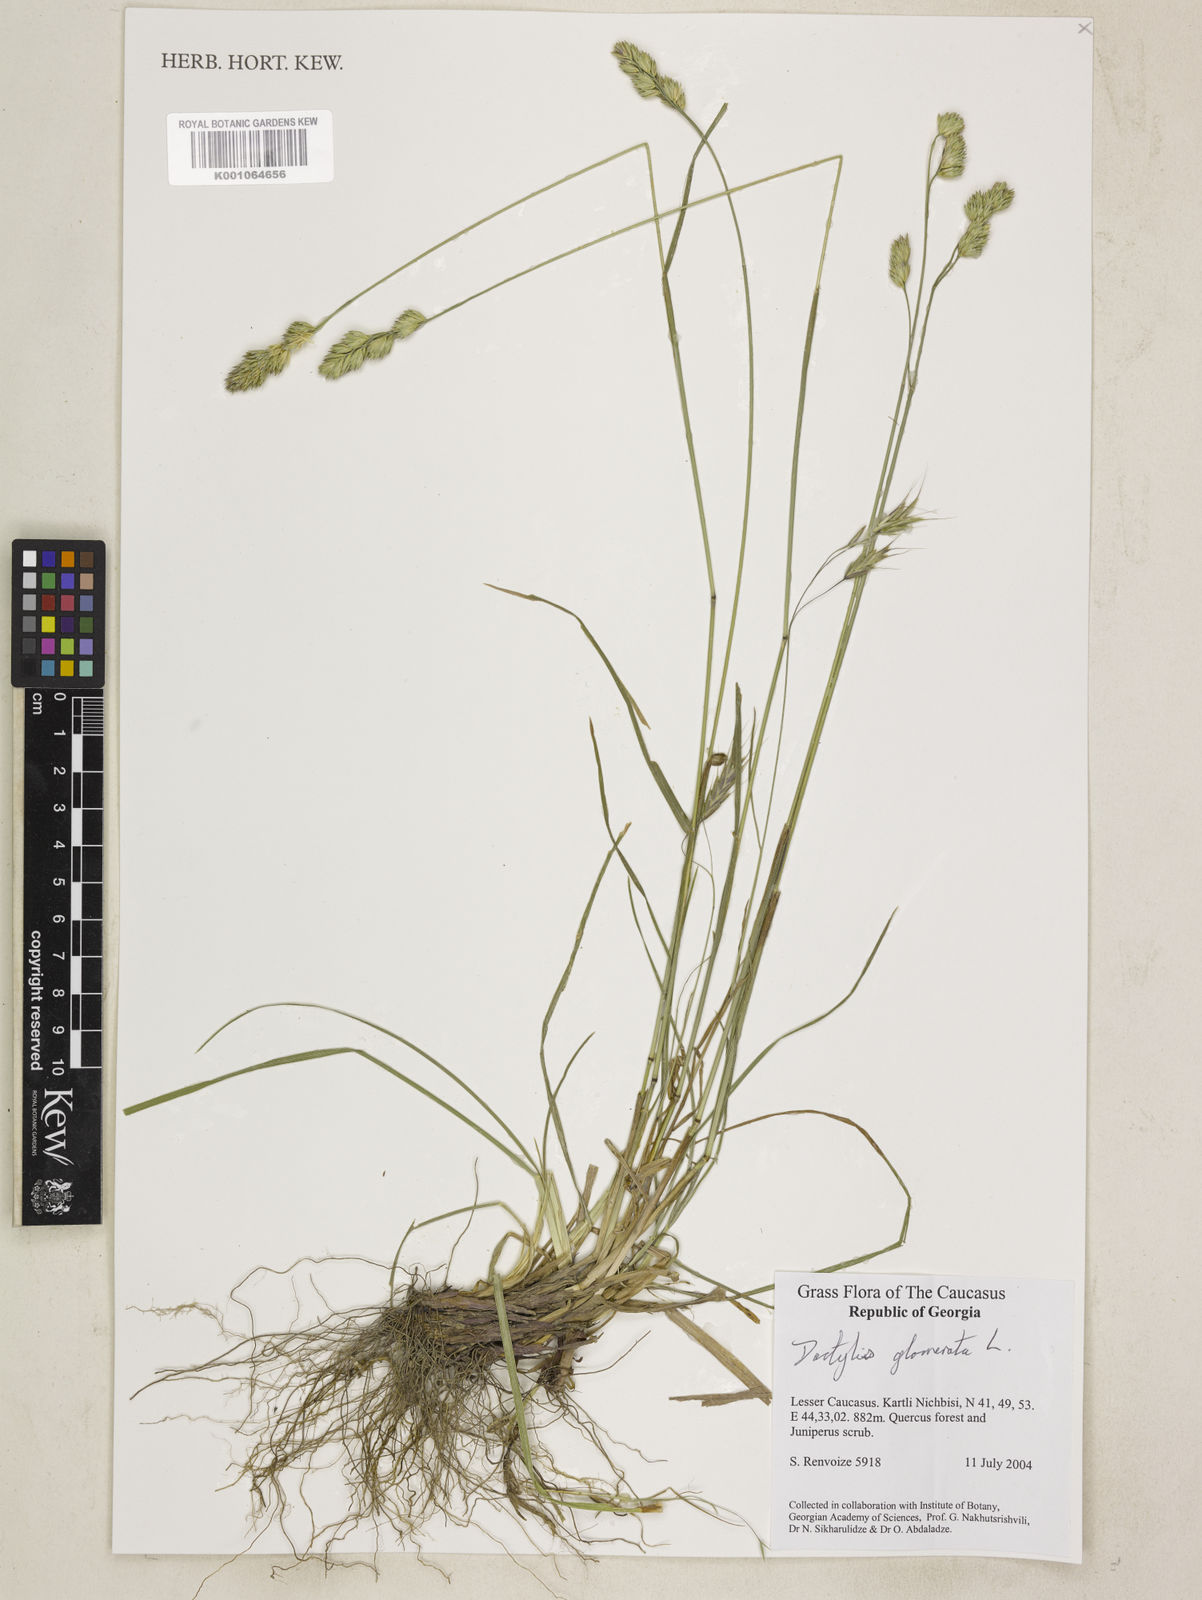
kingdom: Plantae
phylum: Tracheophyta
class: Liliopsida
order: Poales
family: Poaceae
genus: Dactylis
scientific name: Dactylis glomerata
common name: Orchardgrass
